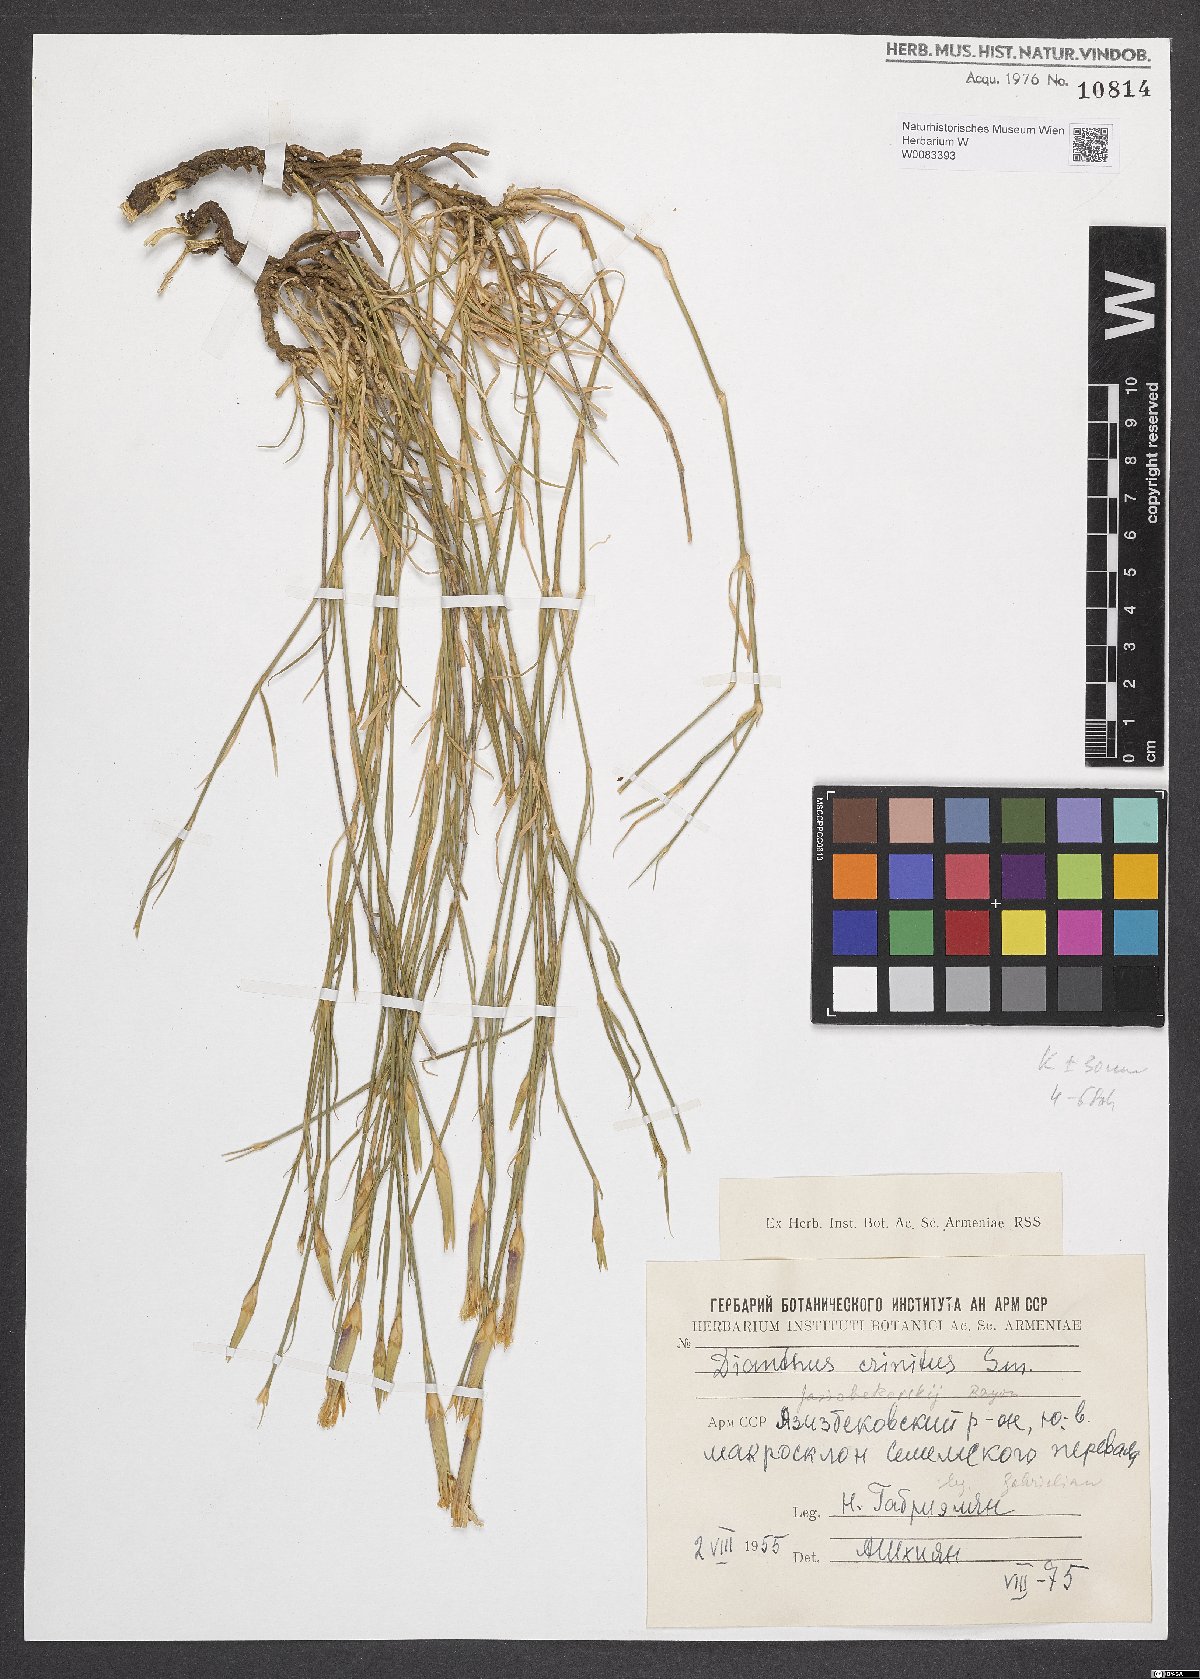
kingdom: Plantae
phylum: Tracheophyta
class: Magnoliopsida
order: Caryophyllales
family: Caryophyllaceae
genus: Dianthus
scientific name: Dianthus crinitus
